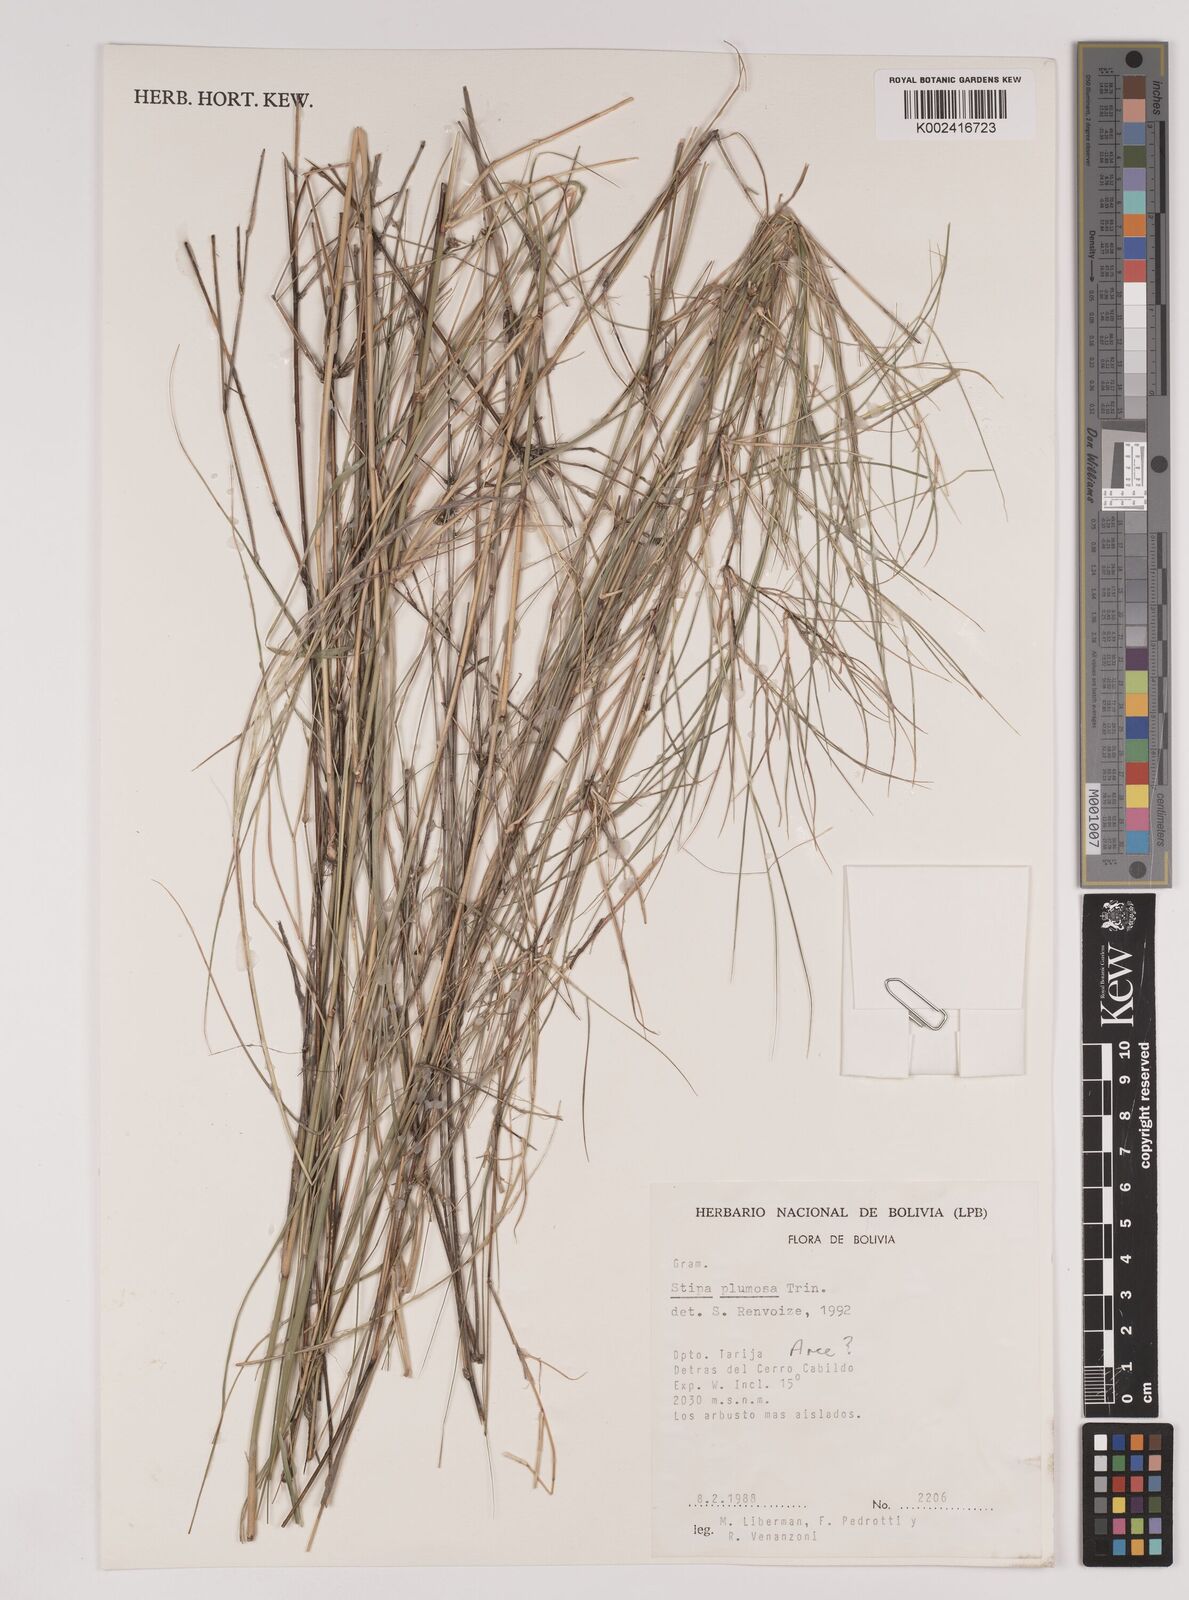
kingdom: Plantae
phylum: Tracheophyta
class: Liliopsida
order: Poales
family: Poaceae
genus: Stipa
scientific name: Stipa plumosa
